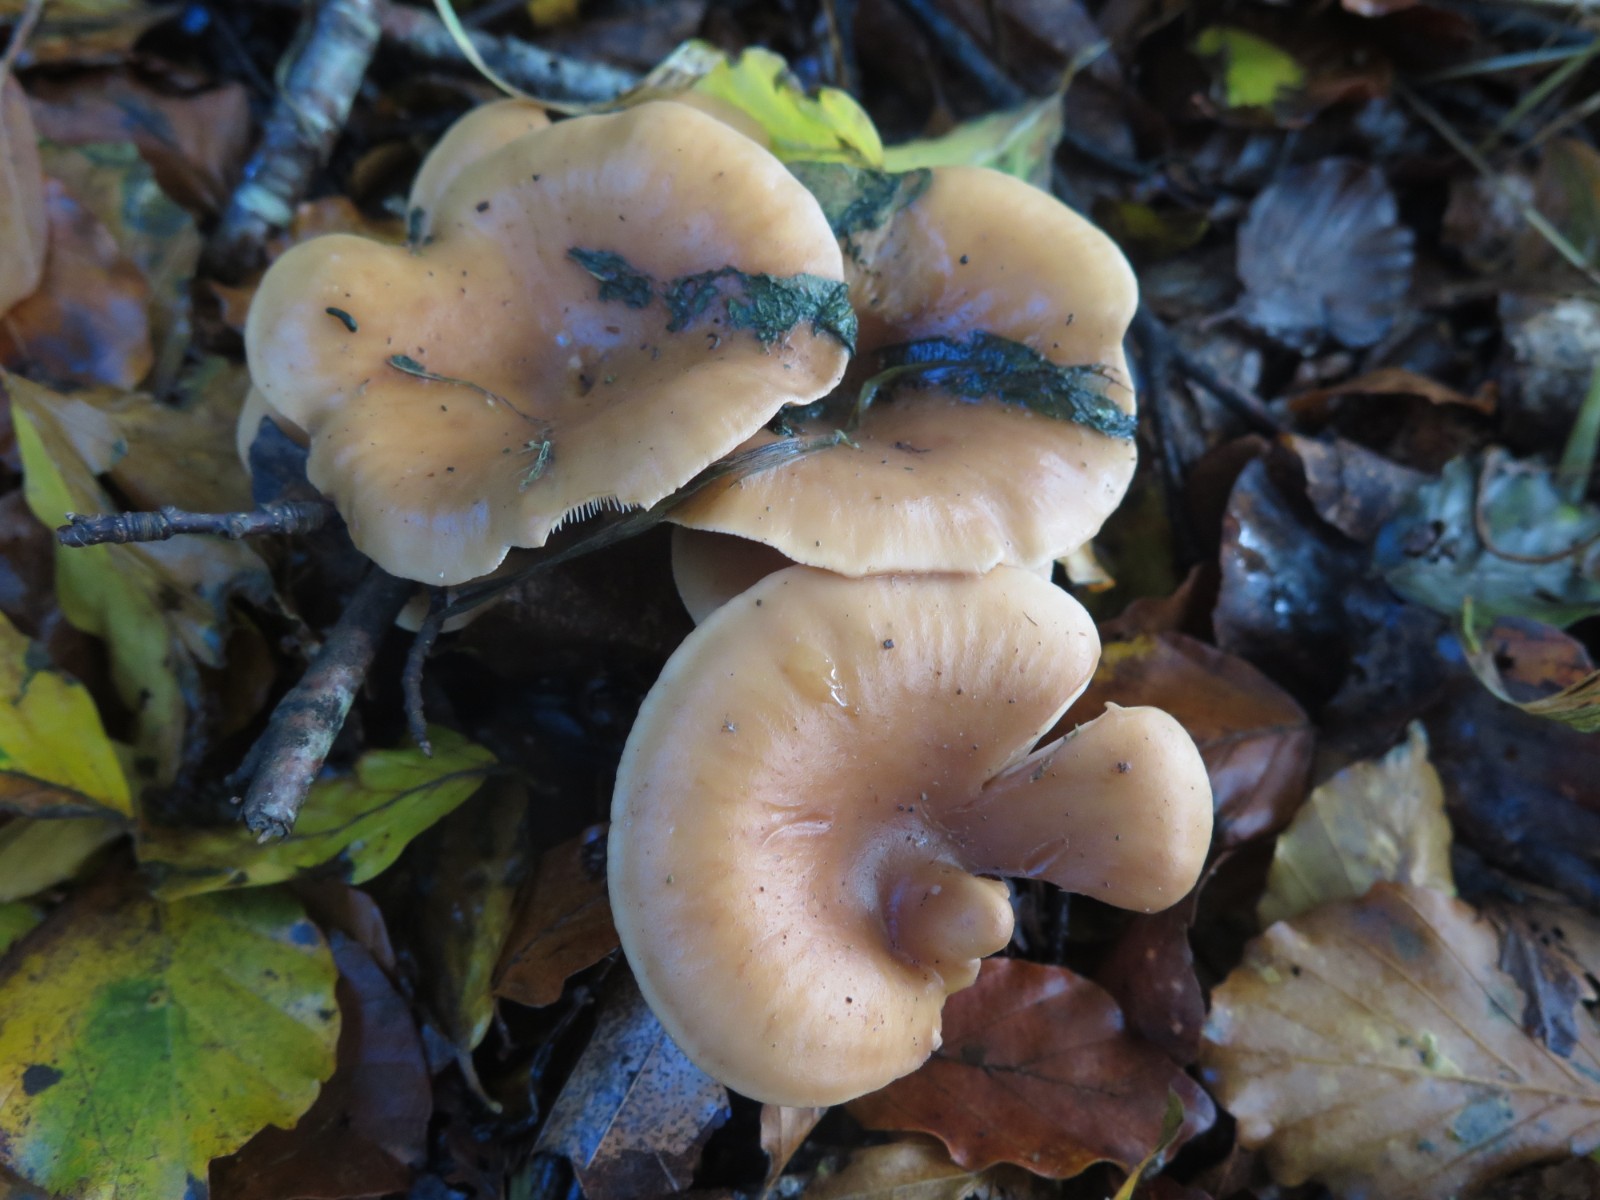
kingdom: Fungi
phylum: Basidiomycota
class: Agaricomycetes
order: Agaricales
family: Tricholomataceae
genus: Paralepista
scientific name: Paralepista flaccida
